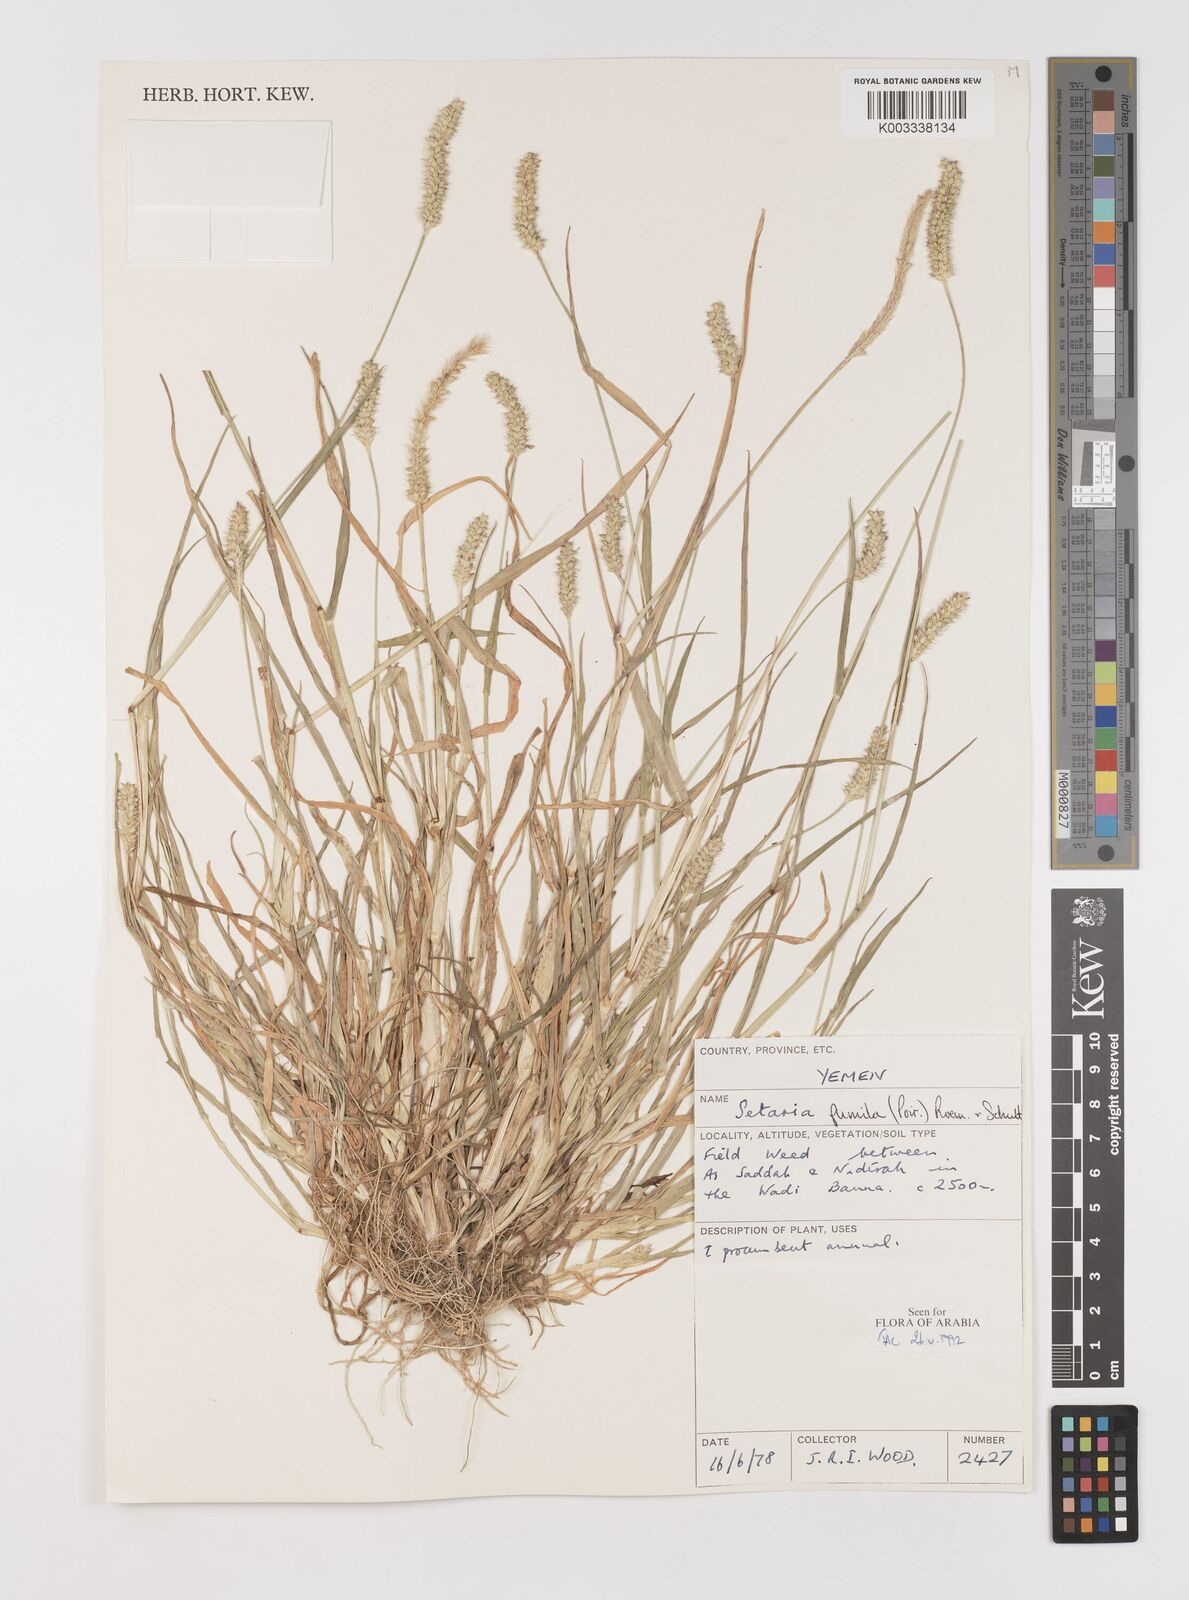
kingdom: Plantae
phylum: Tracheophyta
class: Liliopsida
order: Poales
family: Poaceae
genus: Setaria
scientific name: Setaria pumila
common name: Yellow bristle-grass
